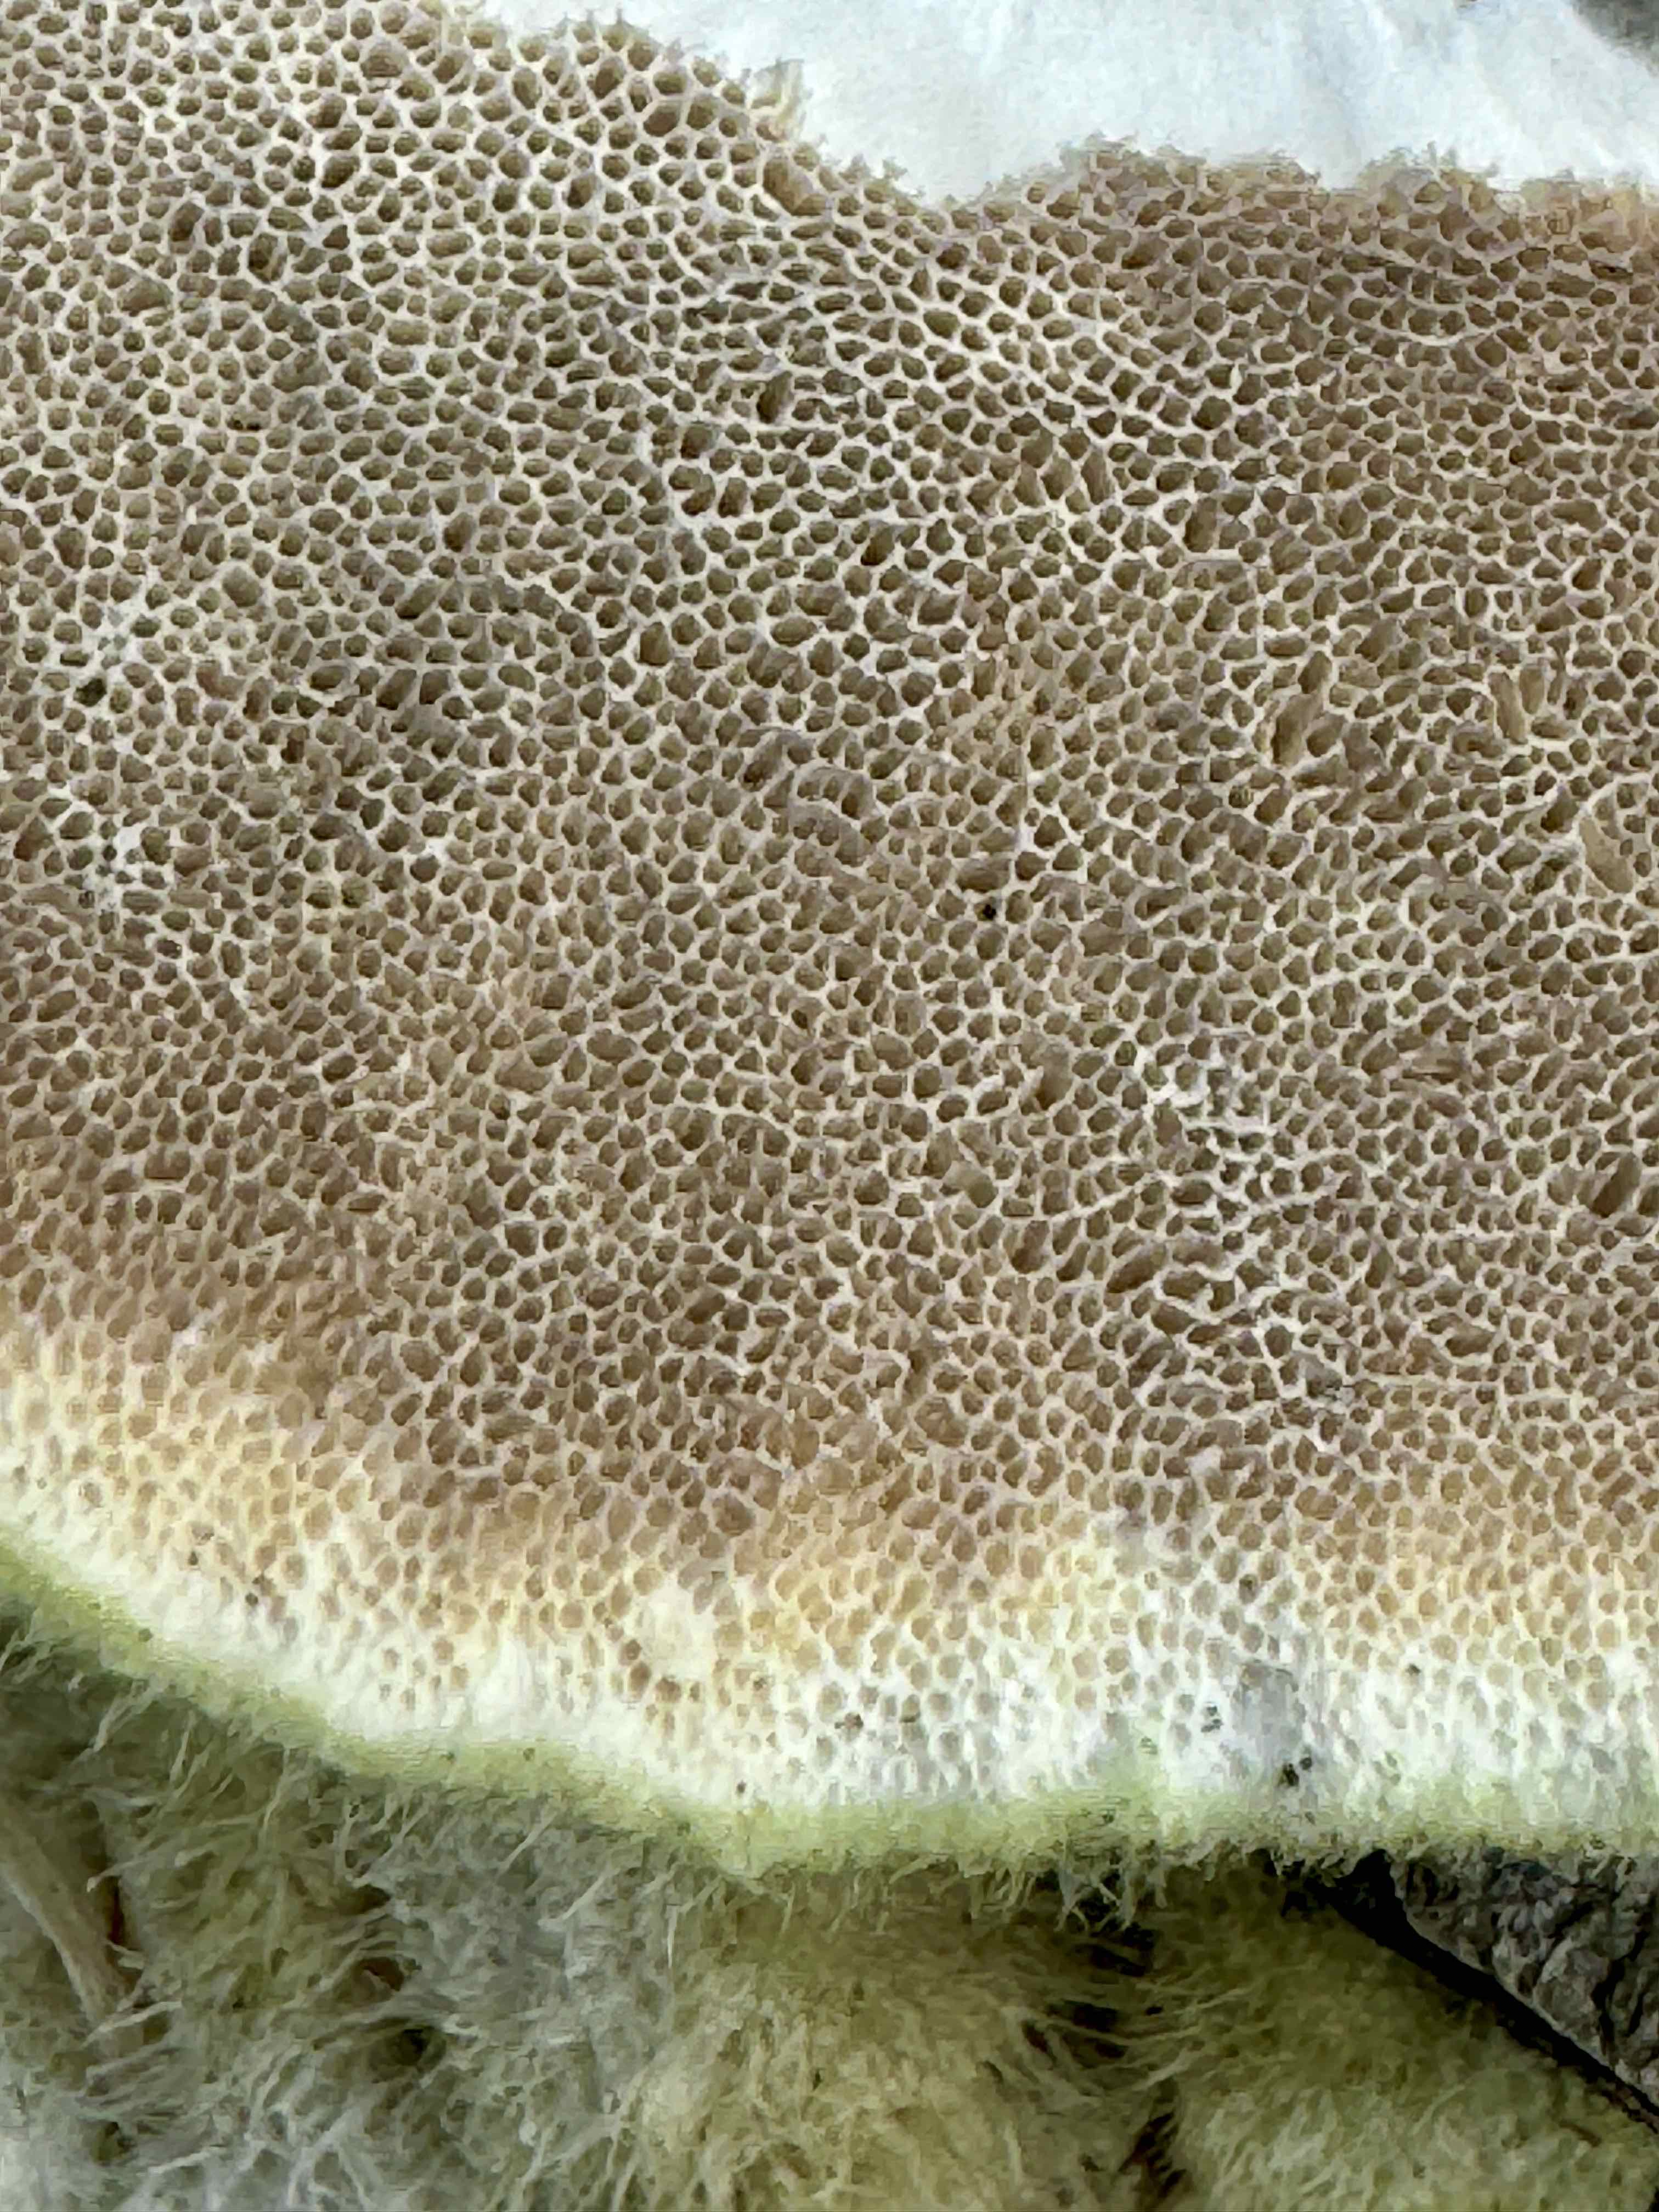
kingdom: Fungi
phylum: Basidiomycota
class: Agaricomycetes
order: Polyporales
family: Polyporaceae
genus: Trametes
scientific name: Trametes hirsuta
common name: håret læderporesvamp
